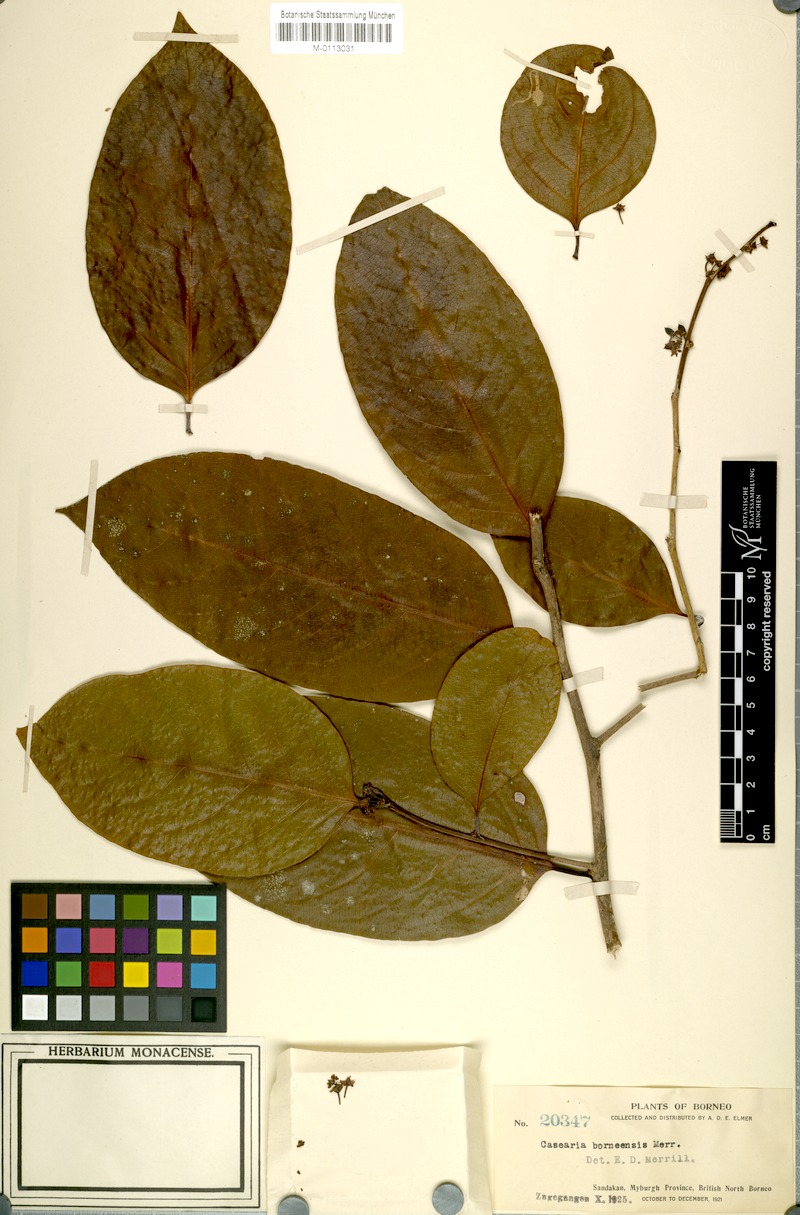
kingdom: Plantae
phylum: Tracheophyta
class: Magnoliopsida
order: Malpighiales
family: Salicaceae
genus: Casearia
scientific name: Casearia capitellata
